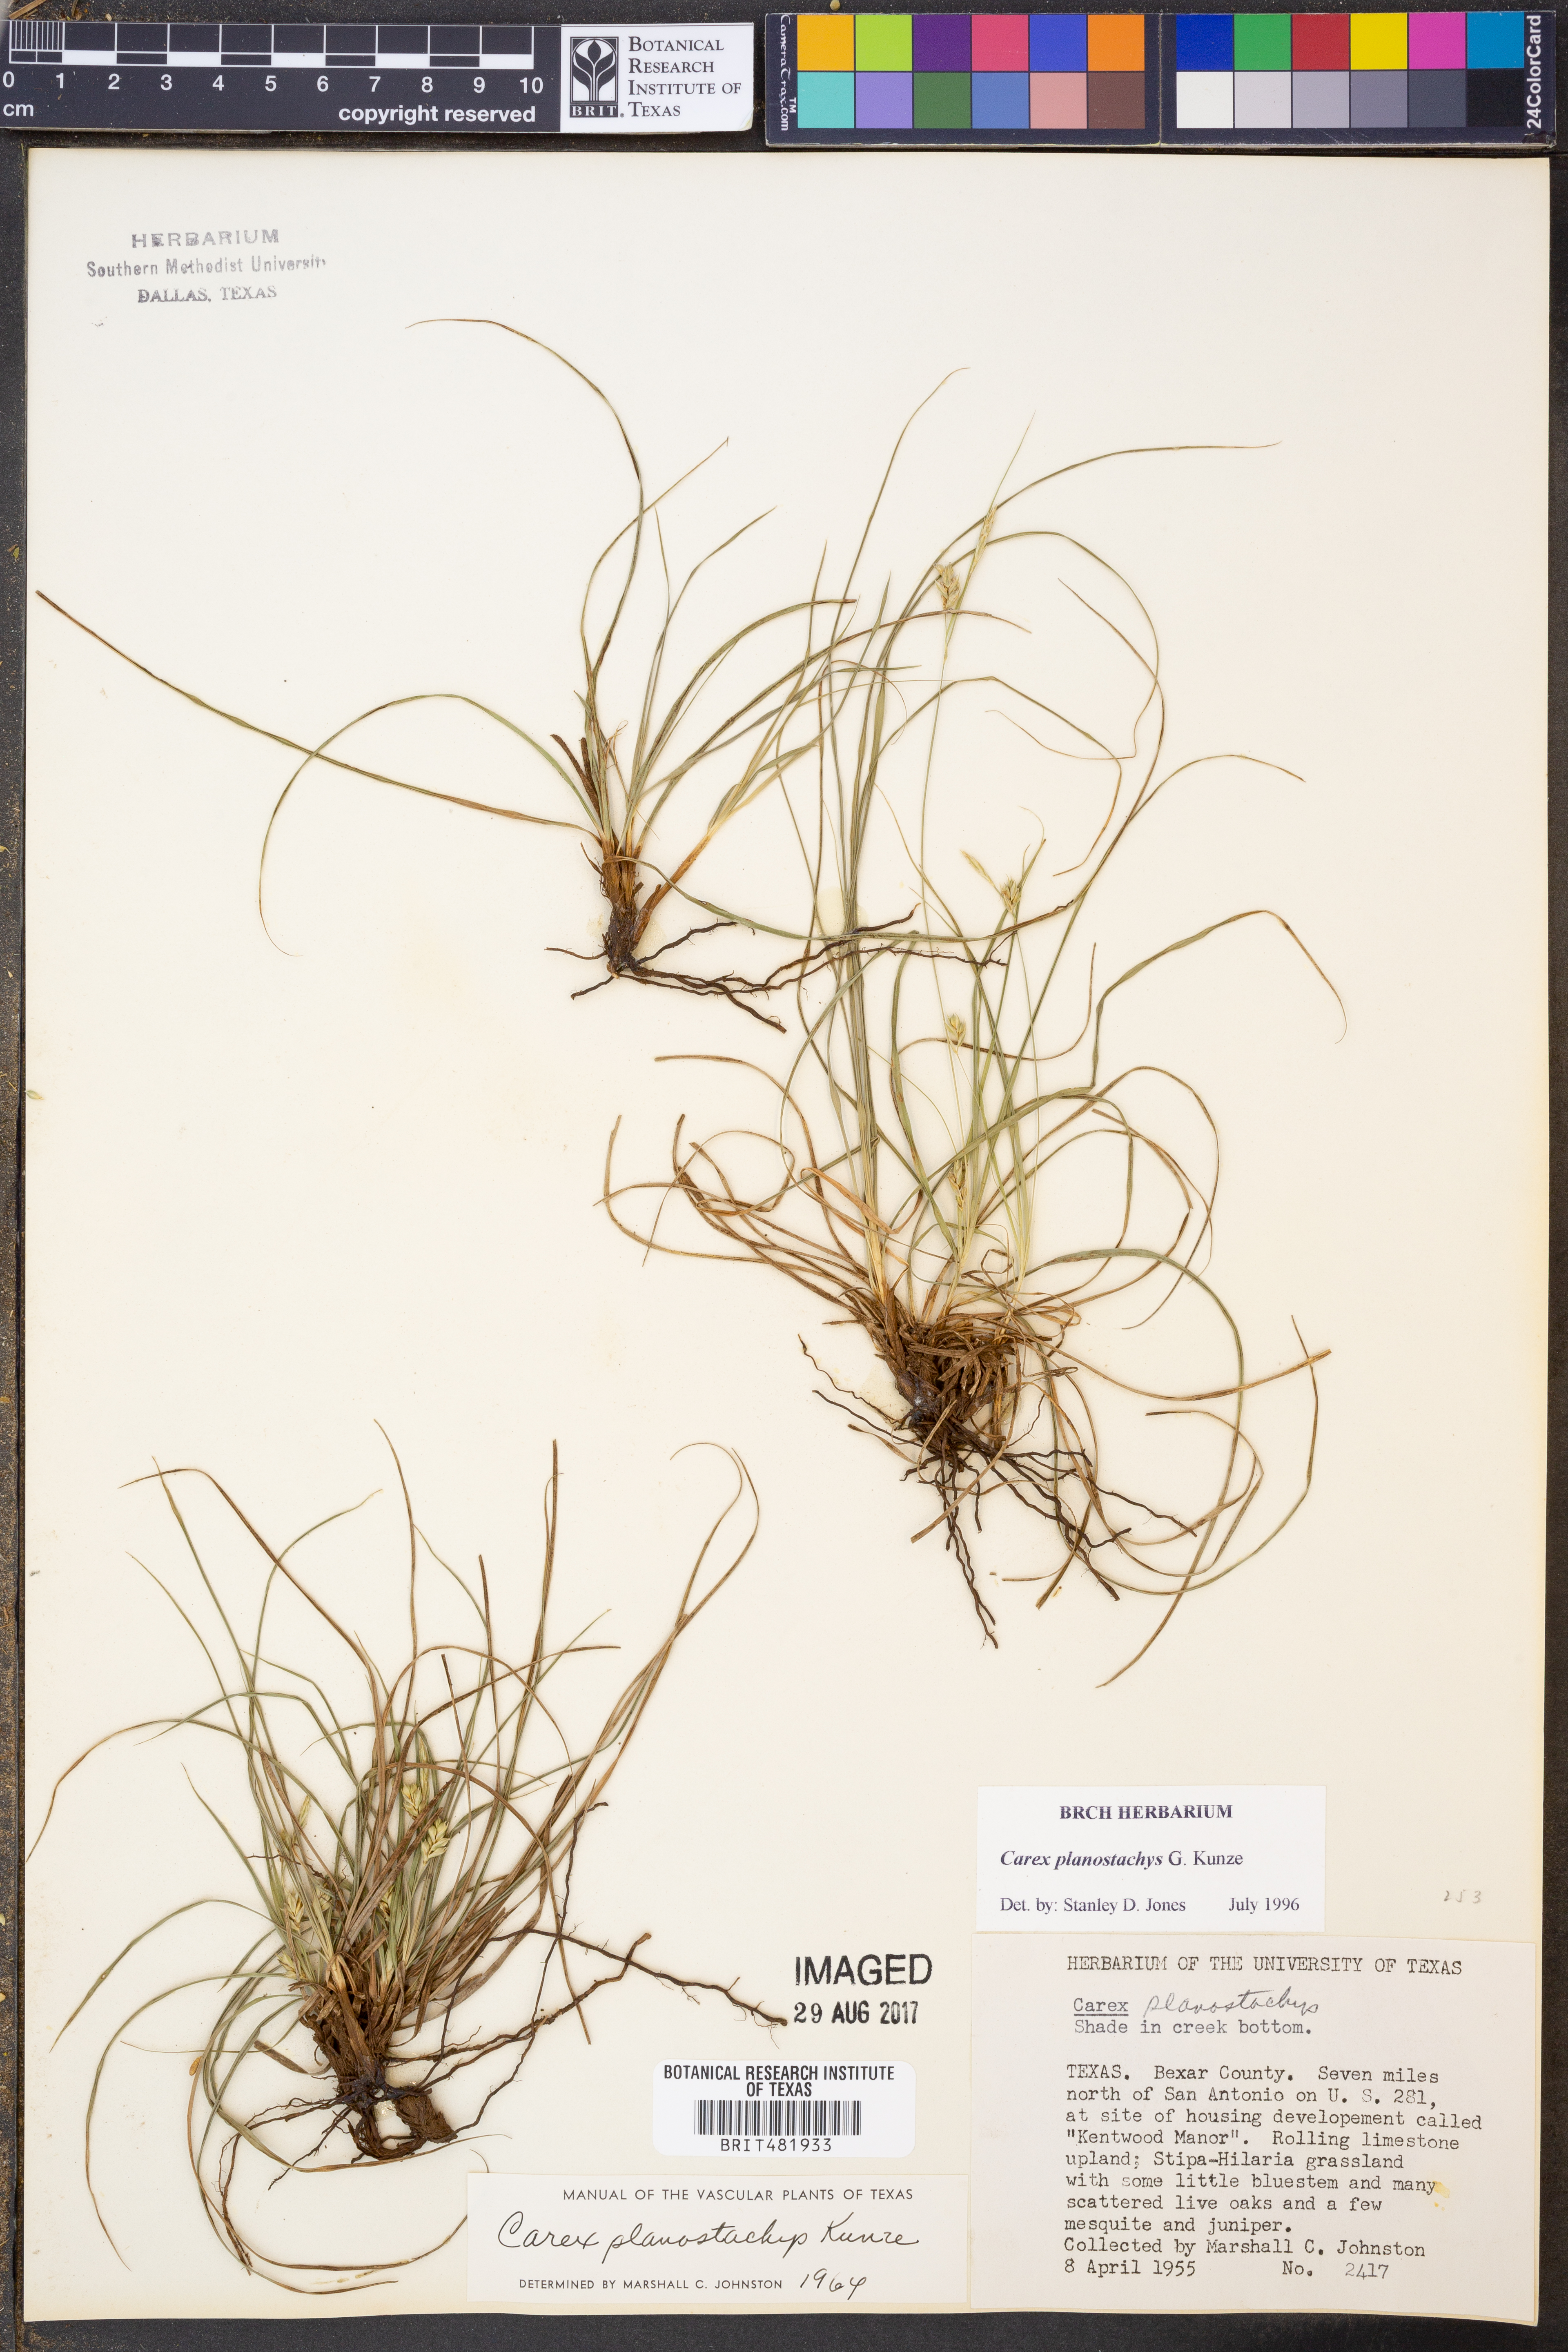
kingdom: Plantae
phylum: Tracheophyta
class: Liliopsida
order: Poales
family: Cyperaceae
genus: Carex
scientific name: Carex planostachys
